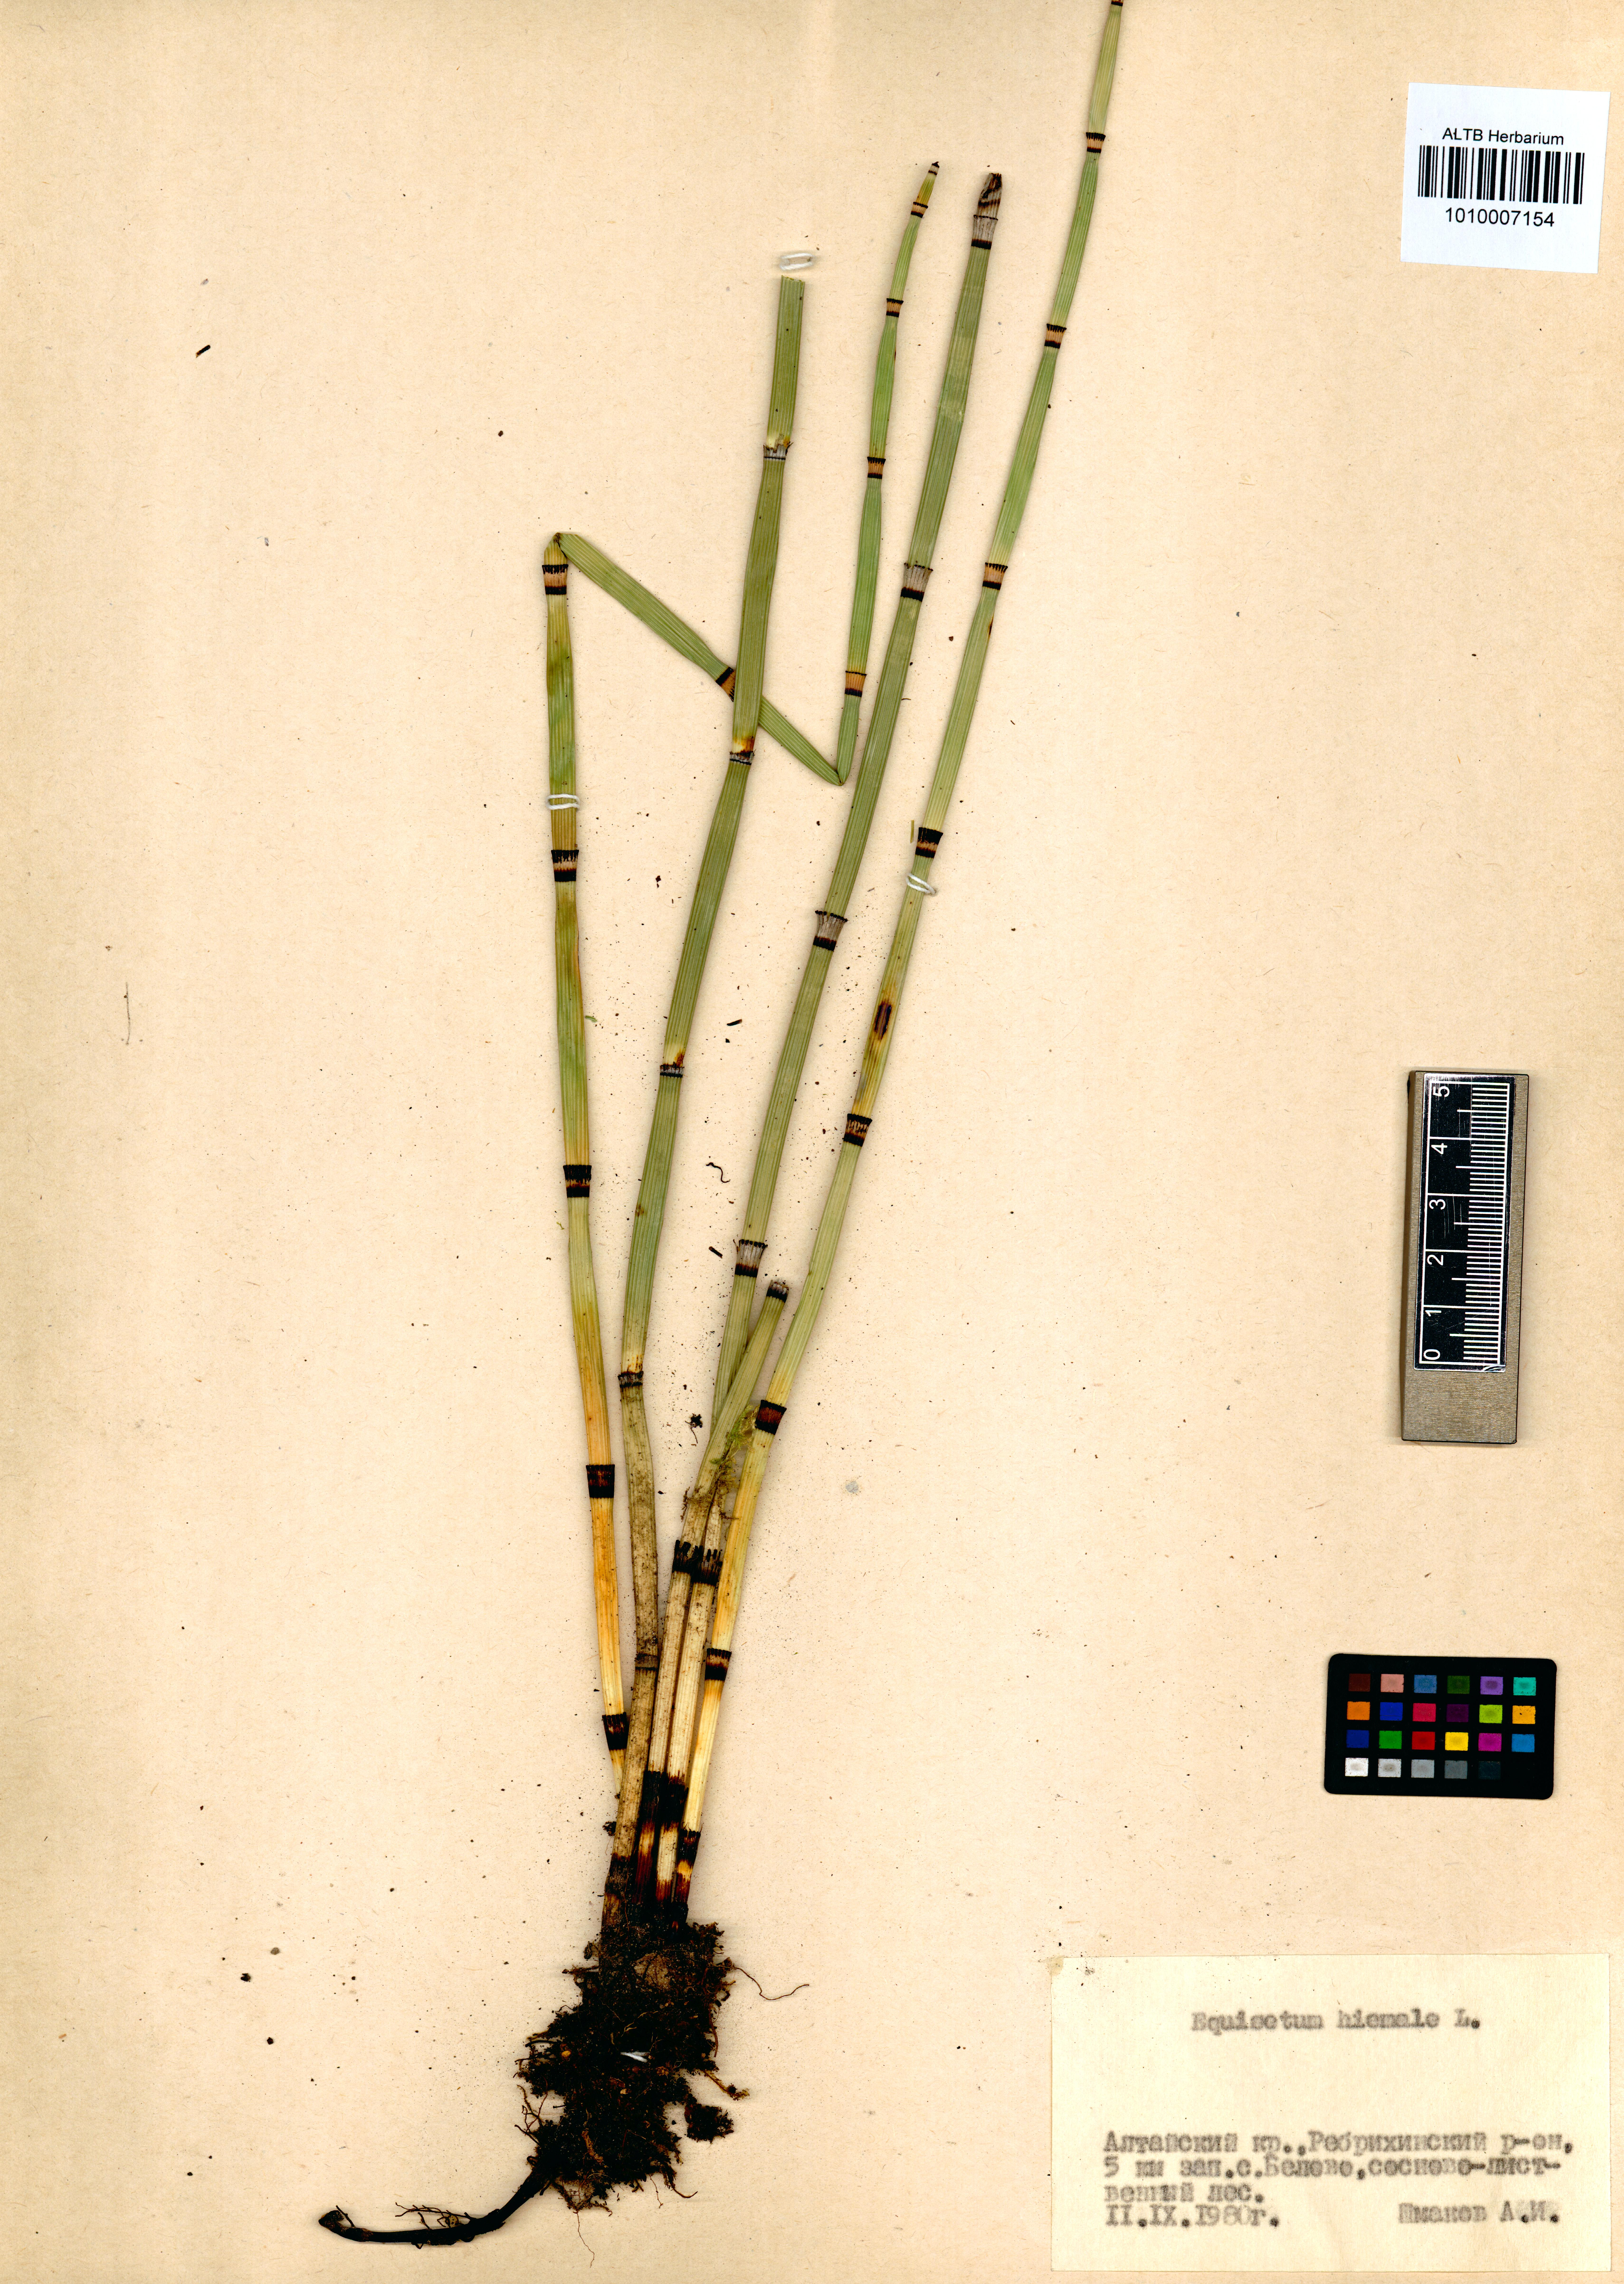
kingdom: Plantae
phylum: Tracheophyta
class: Polypodiopsida
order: Equisetales
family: Equisetaceae
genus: Equisetum
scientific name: Equisetum hyemale
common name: Rough horsetail
